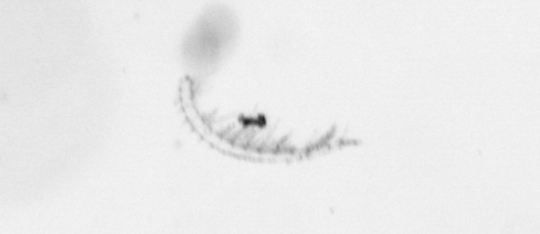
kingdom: Chromista
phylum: Ochrophyta
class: Bacillariophyceae
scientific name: Bacillariophyceae
